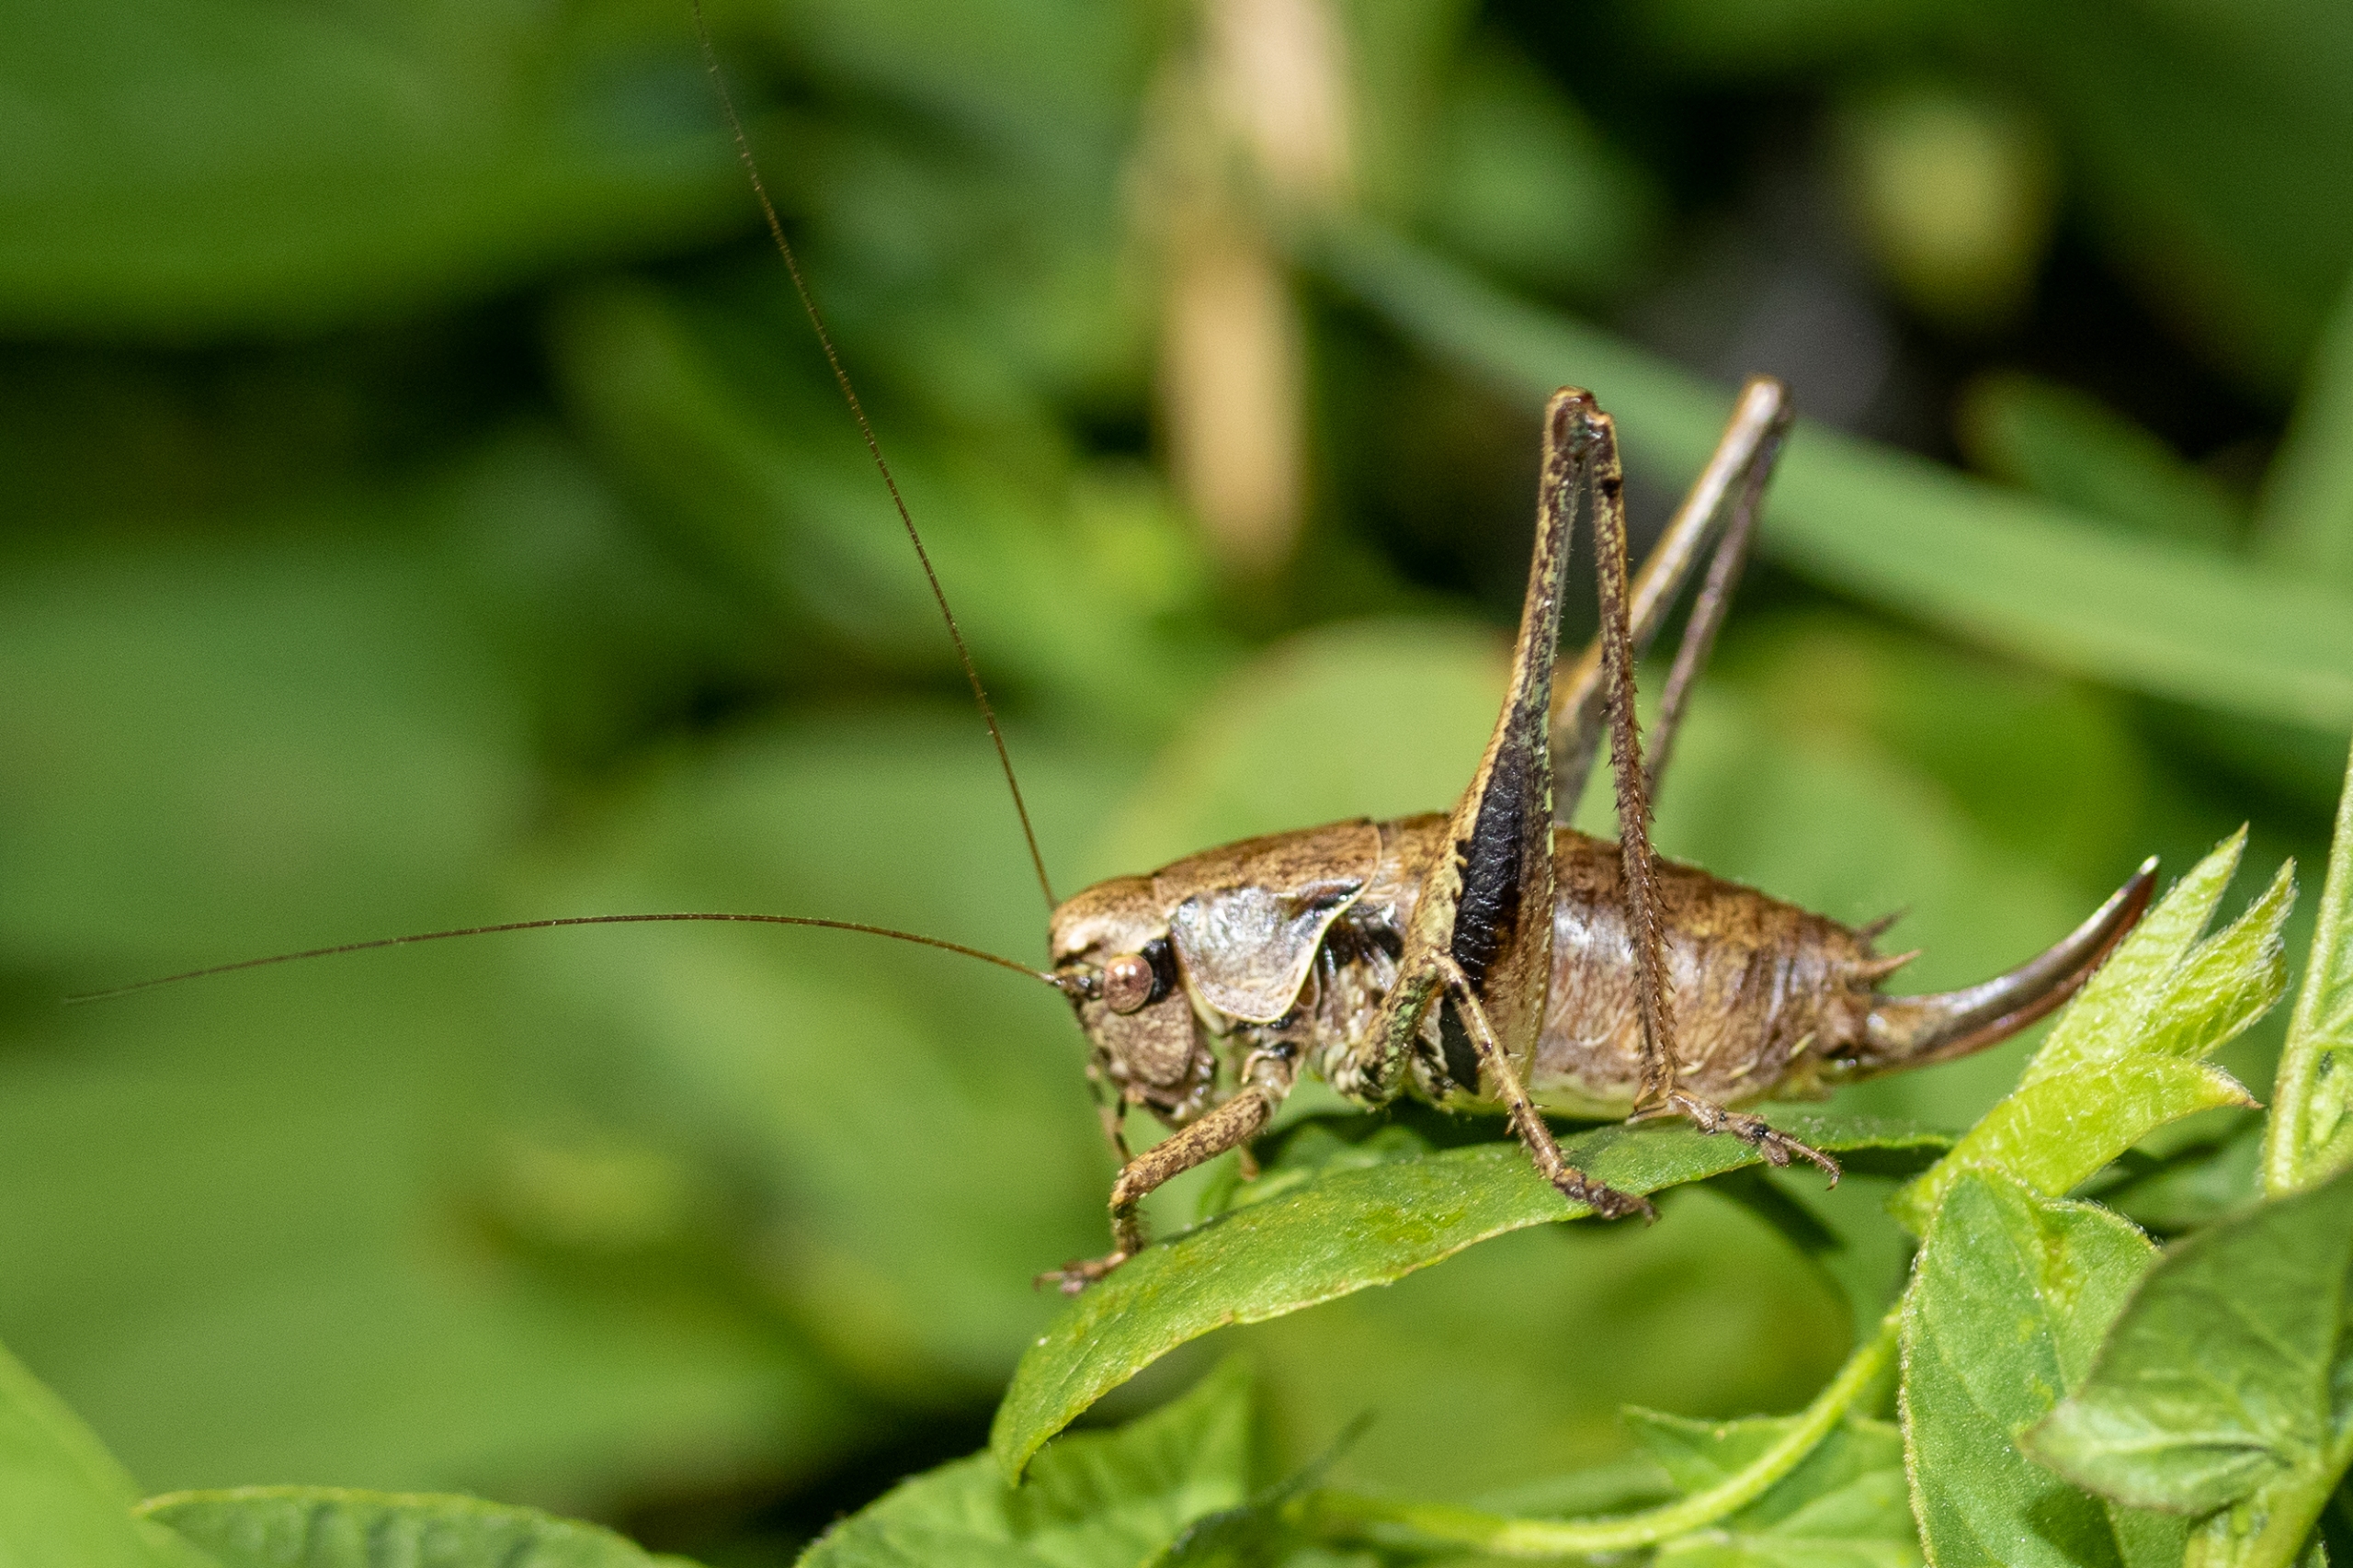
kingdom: Animalia
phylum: Arthropoda
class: Insecta
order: Orthoptera
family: Tettigoniidae
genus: Pholidoptera
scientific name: Pholidoptera griseoaptera
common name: Buskgræshoppe
